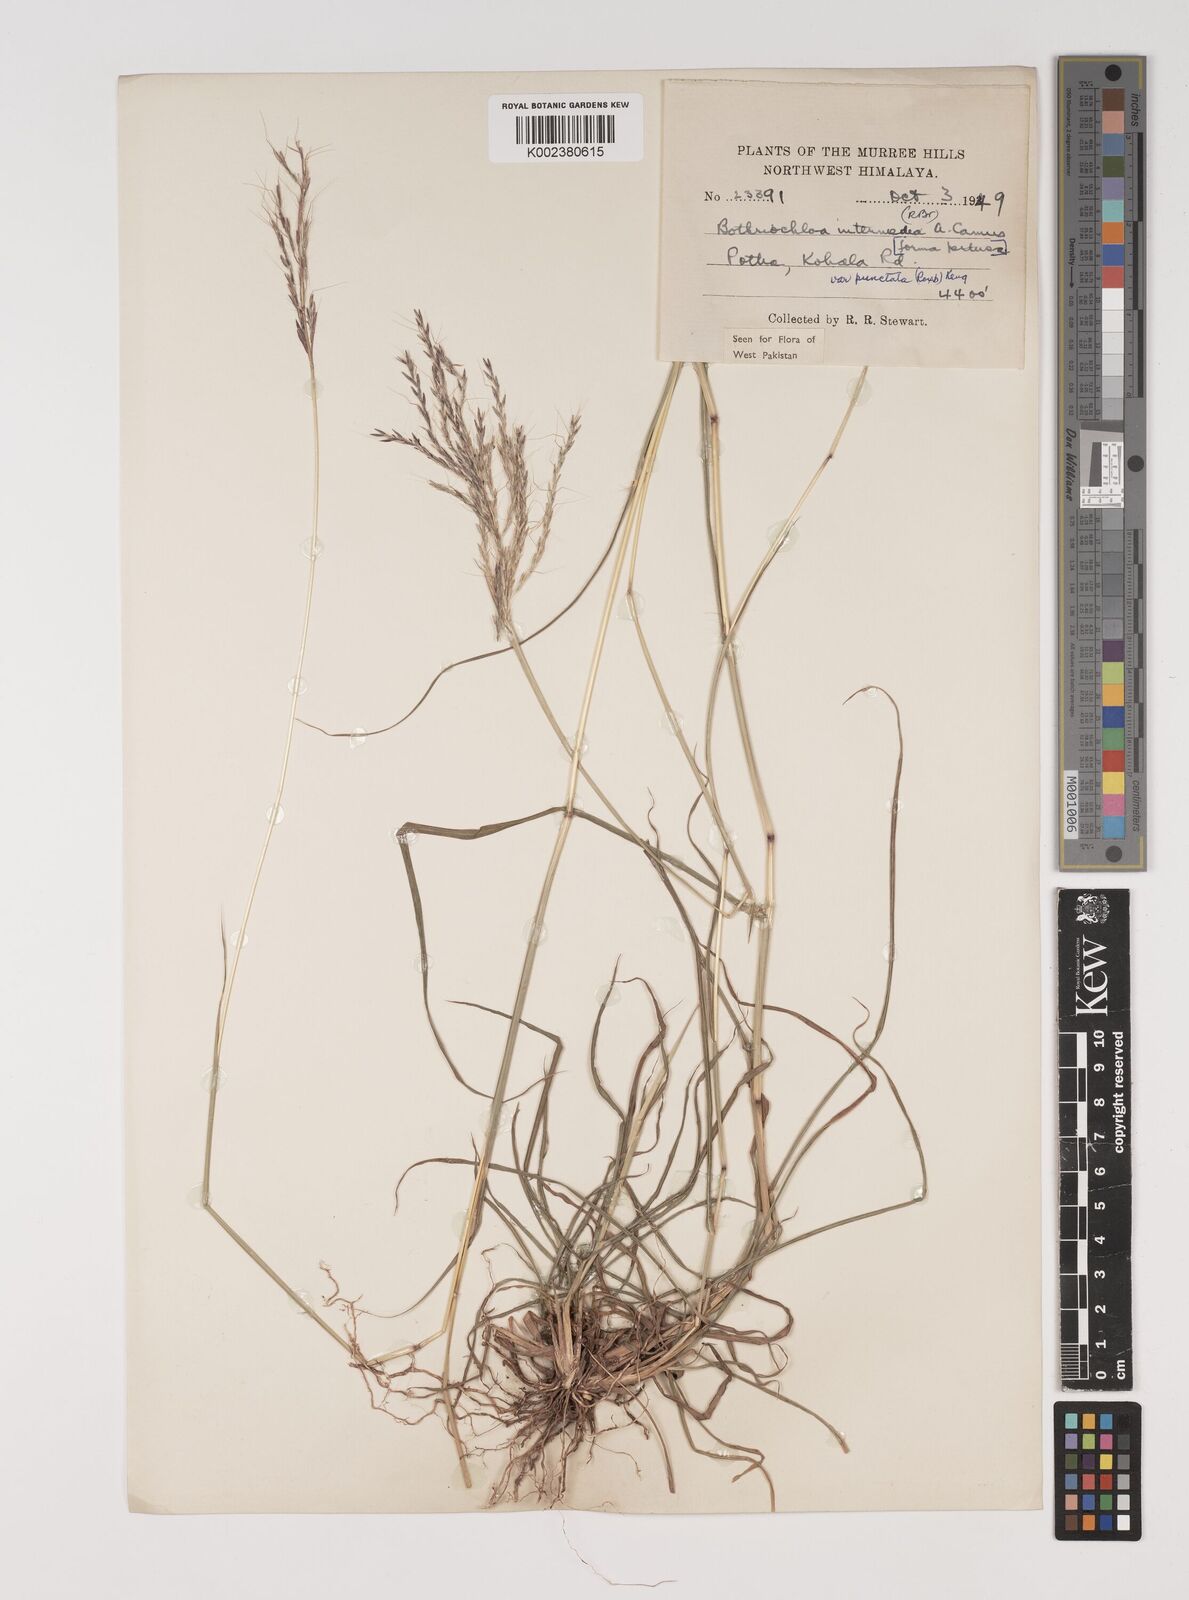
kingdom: Plantae
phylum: Tracheophyta
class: Liliopsida
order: Poales
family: Poaceae
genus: Bothriochloa
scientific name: Bothriochloa bladhii
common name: Caucasian bluestem
